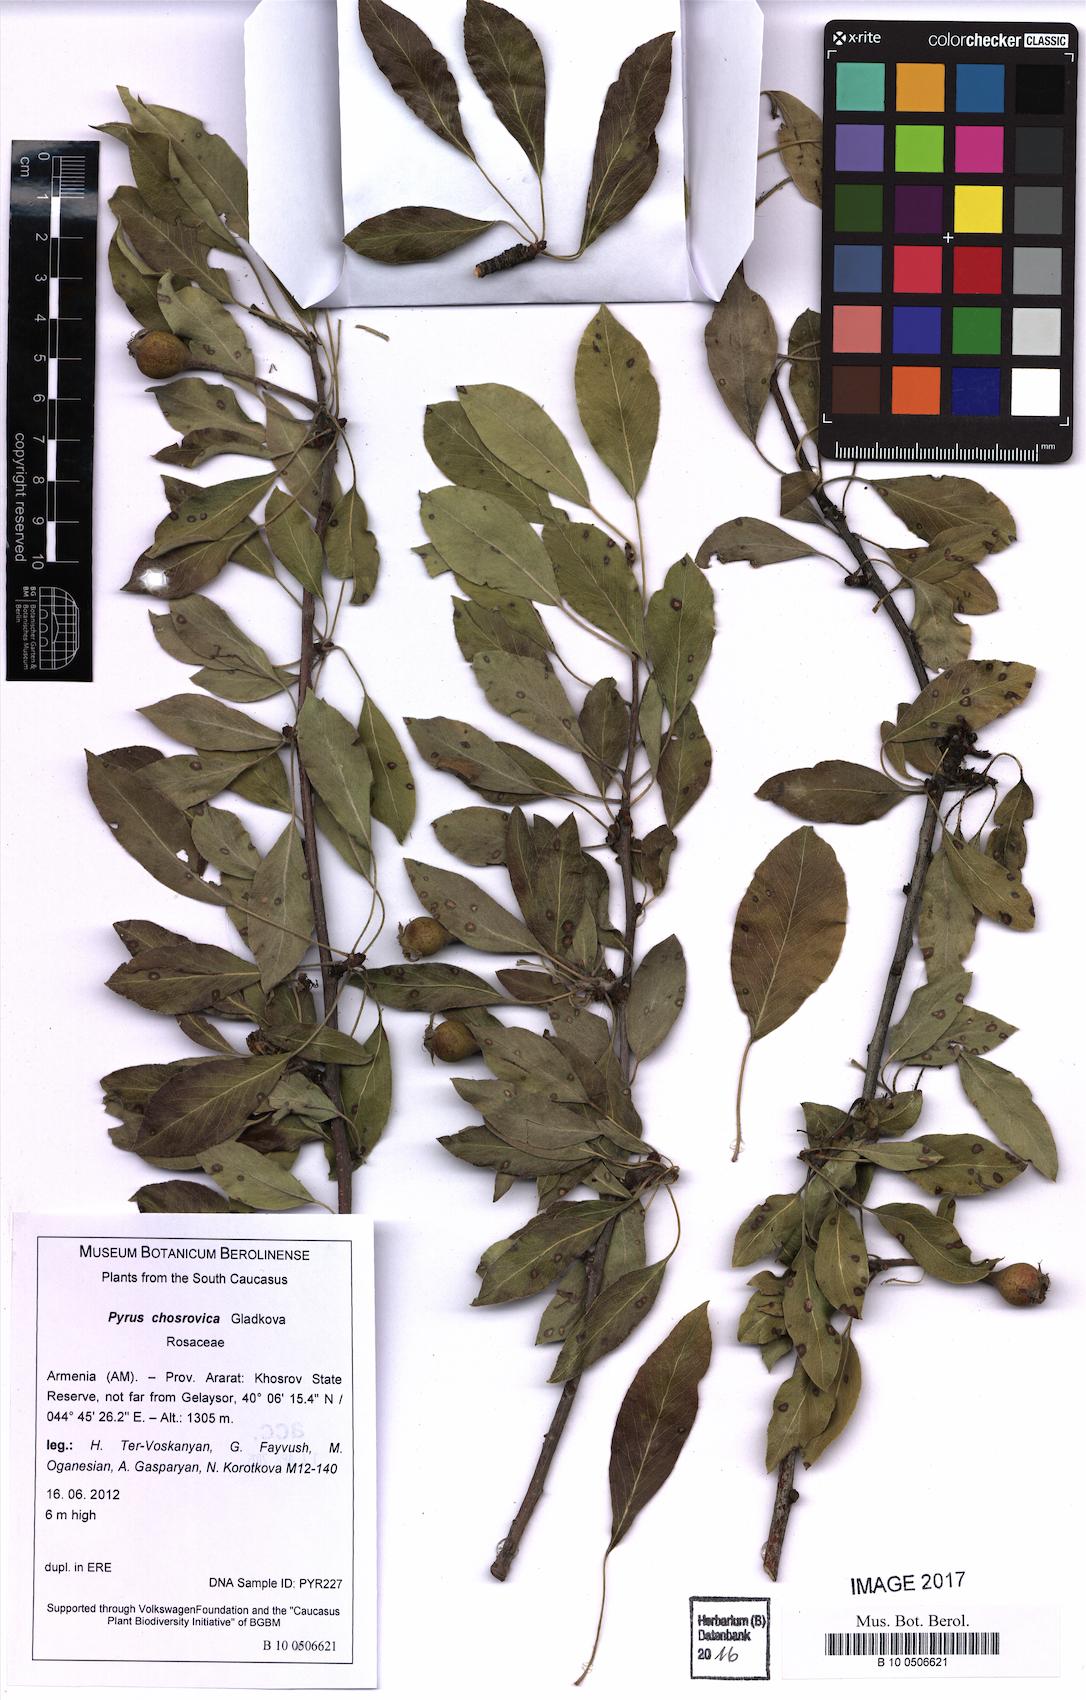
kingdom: Plantae
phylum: Tracheophyta
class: Magnoliopsida
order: Rosales
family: Rosaceae
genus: Pyrus
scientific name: Pyrus chosrovica
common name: Khosrovian pear
